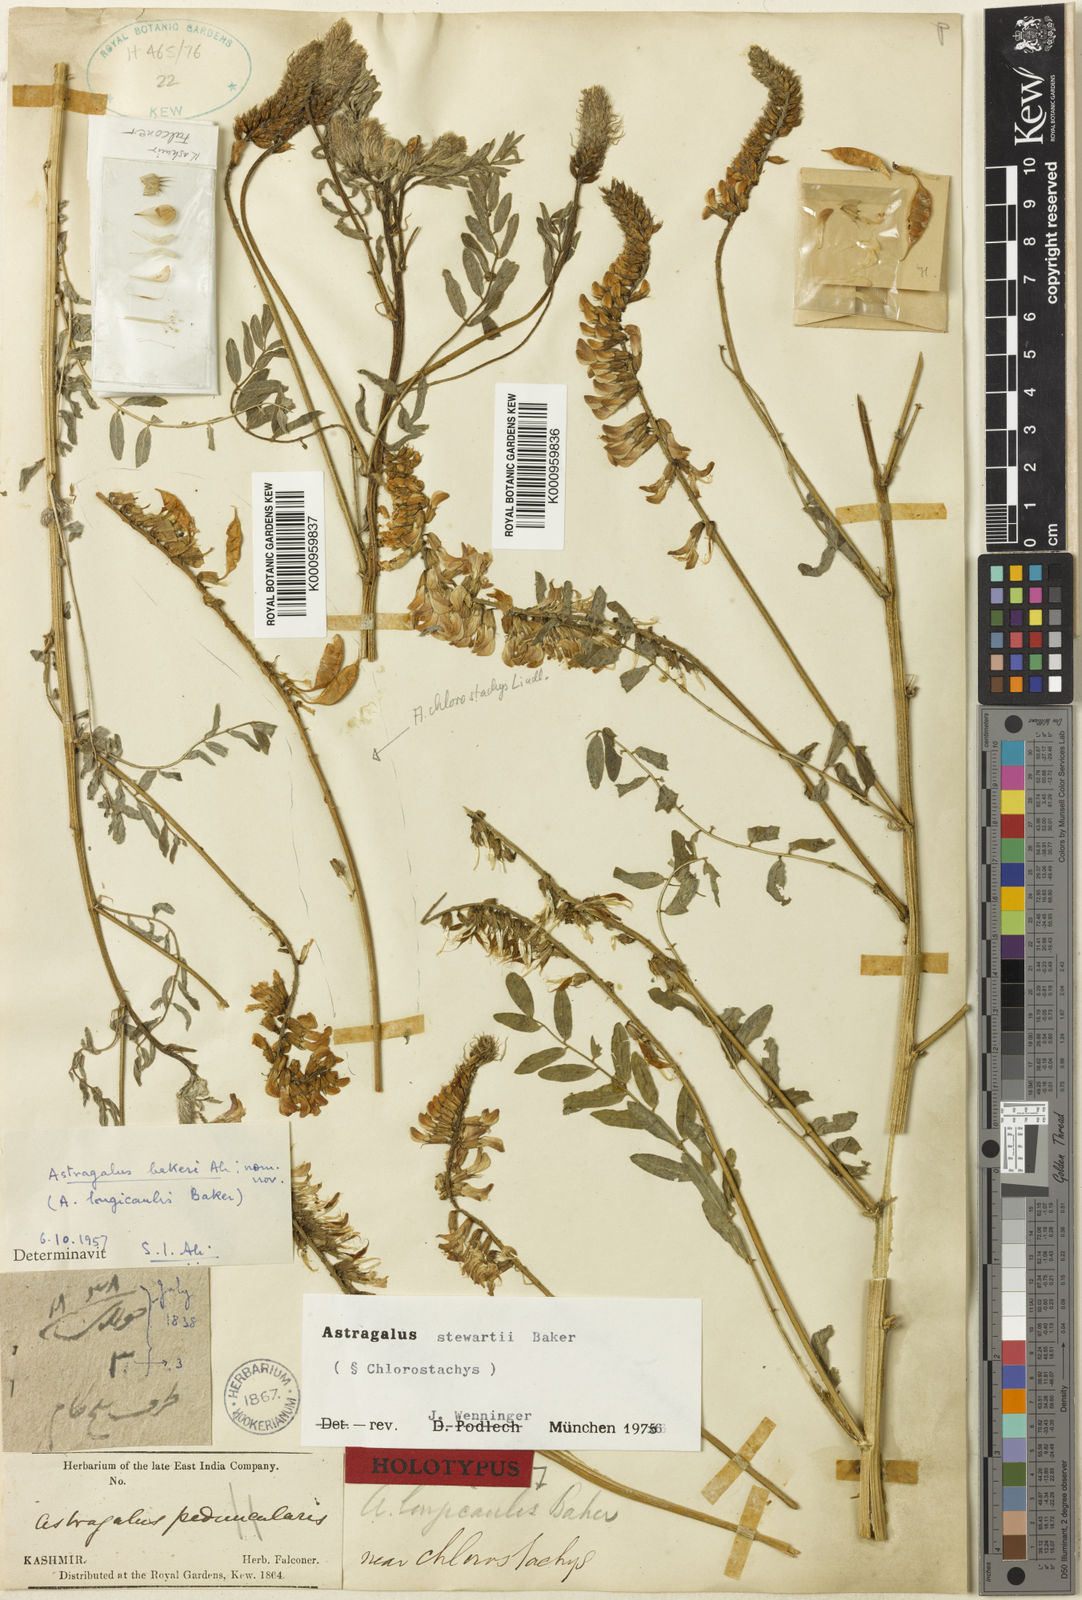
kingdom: Plantae
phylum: Tracheophyta
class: Magnoliopsida
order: Fabales
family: Fabaceae
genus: Astragalus
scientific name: Astragalus
